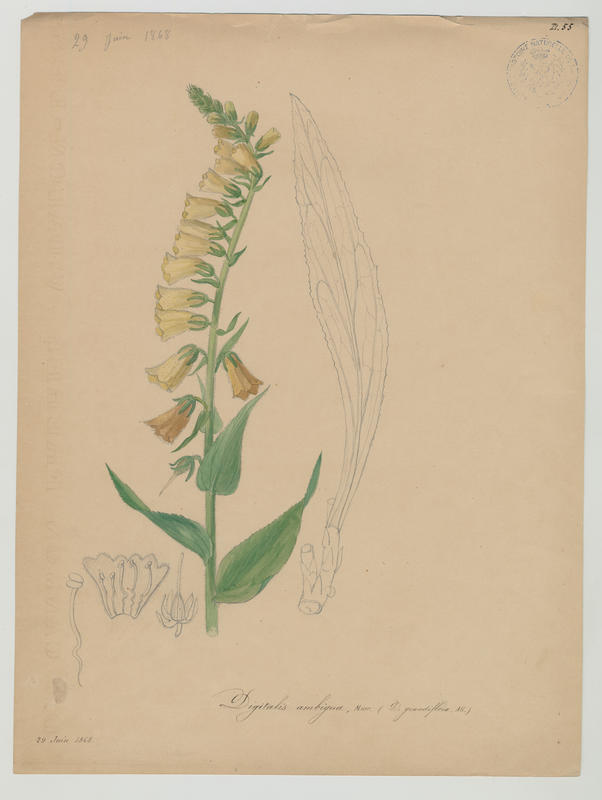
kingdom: Plantae
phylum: Tracheophyta
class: Magnoliopsida
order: Lamiales
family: Plantaginaceae
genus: Digitalis
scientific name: Digitalis grandiflora
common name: Yellow foxglove
